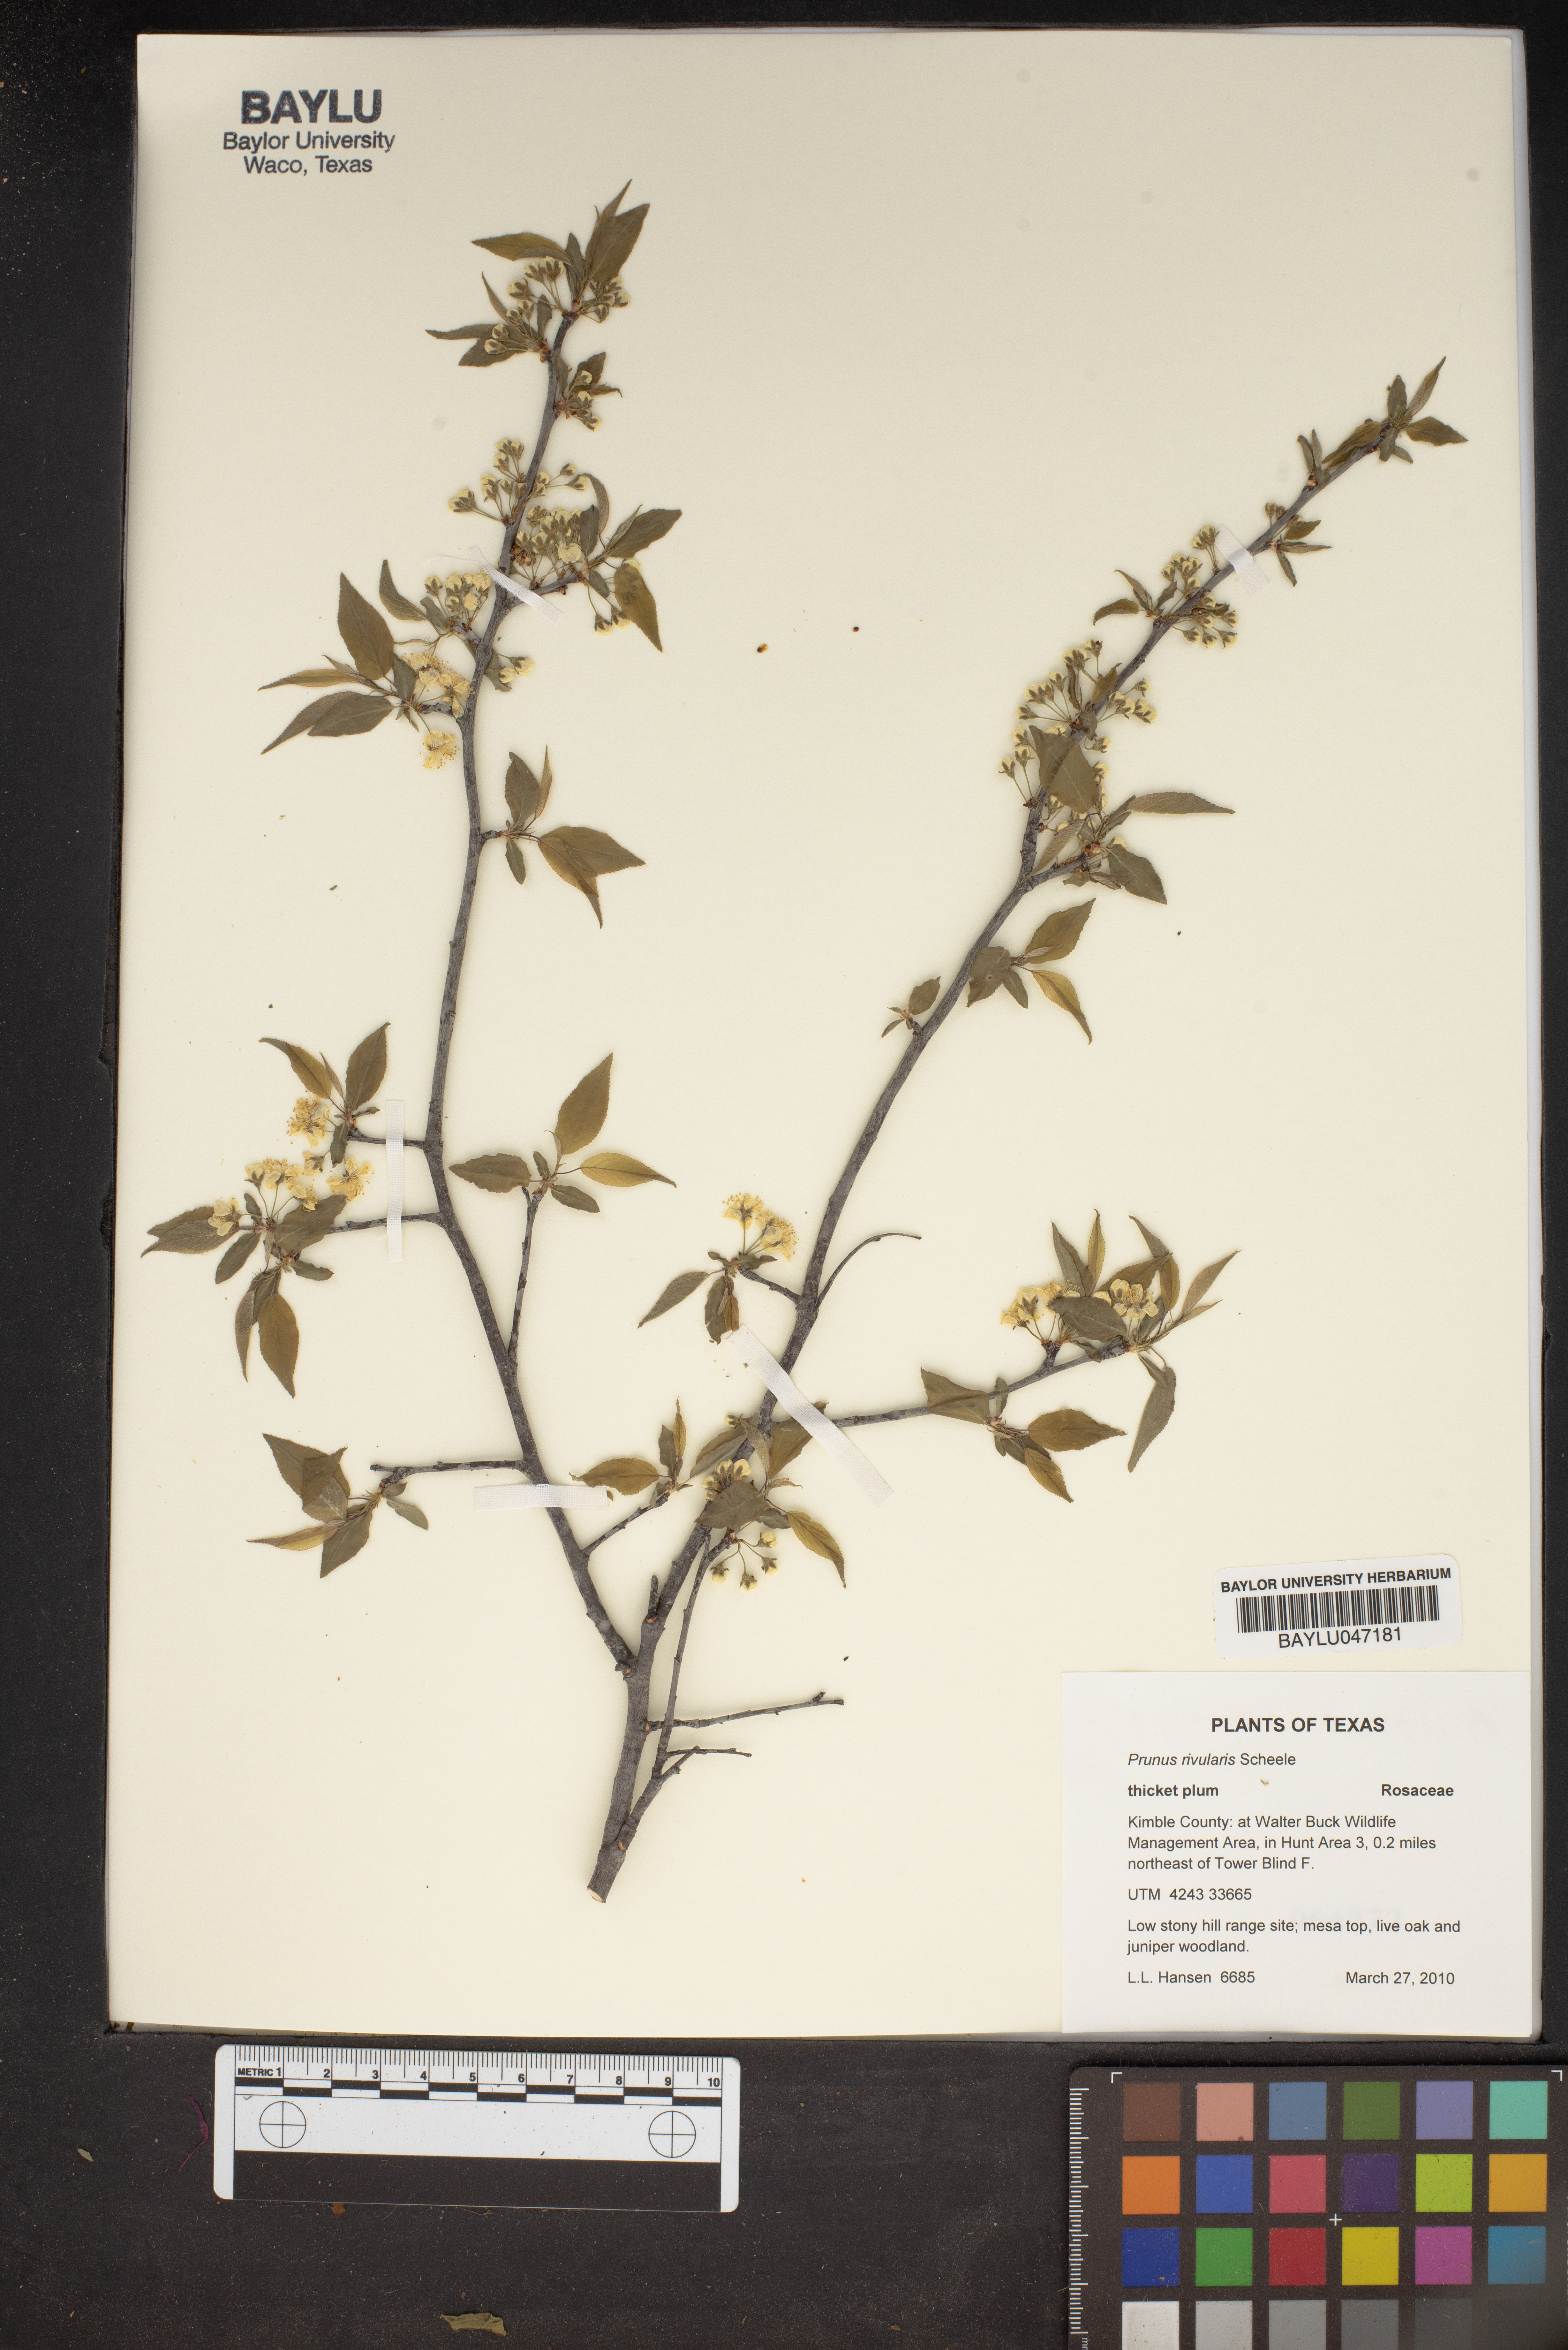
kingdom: Plantae
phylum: Tracheophyta
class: Magnoliopsida
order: Rosales
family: Rosaceae
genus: Prunus
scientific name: Prunus rivularis
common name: Creek plum
